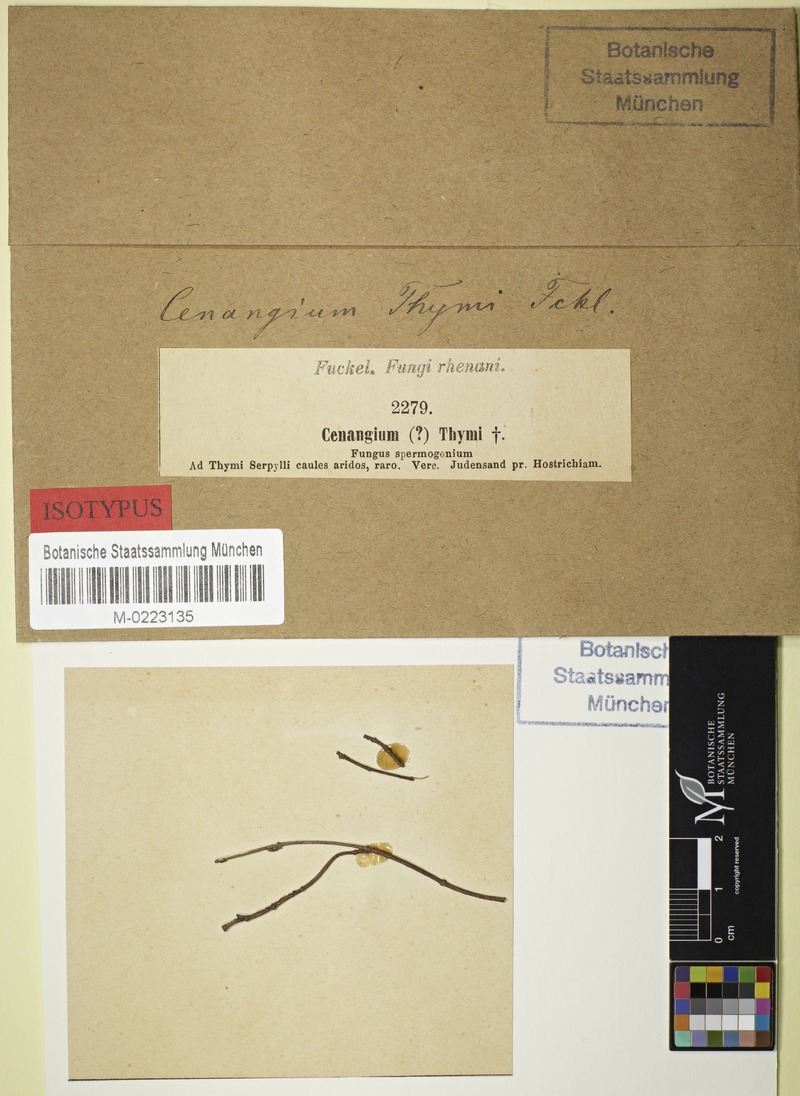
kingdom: Fungi
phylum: Ascomycota
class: Leotiomycetes
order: Helotiales
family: Cenangiaceae
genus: Cenangium
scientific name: Cenangium
